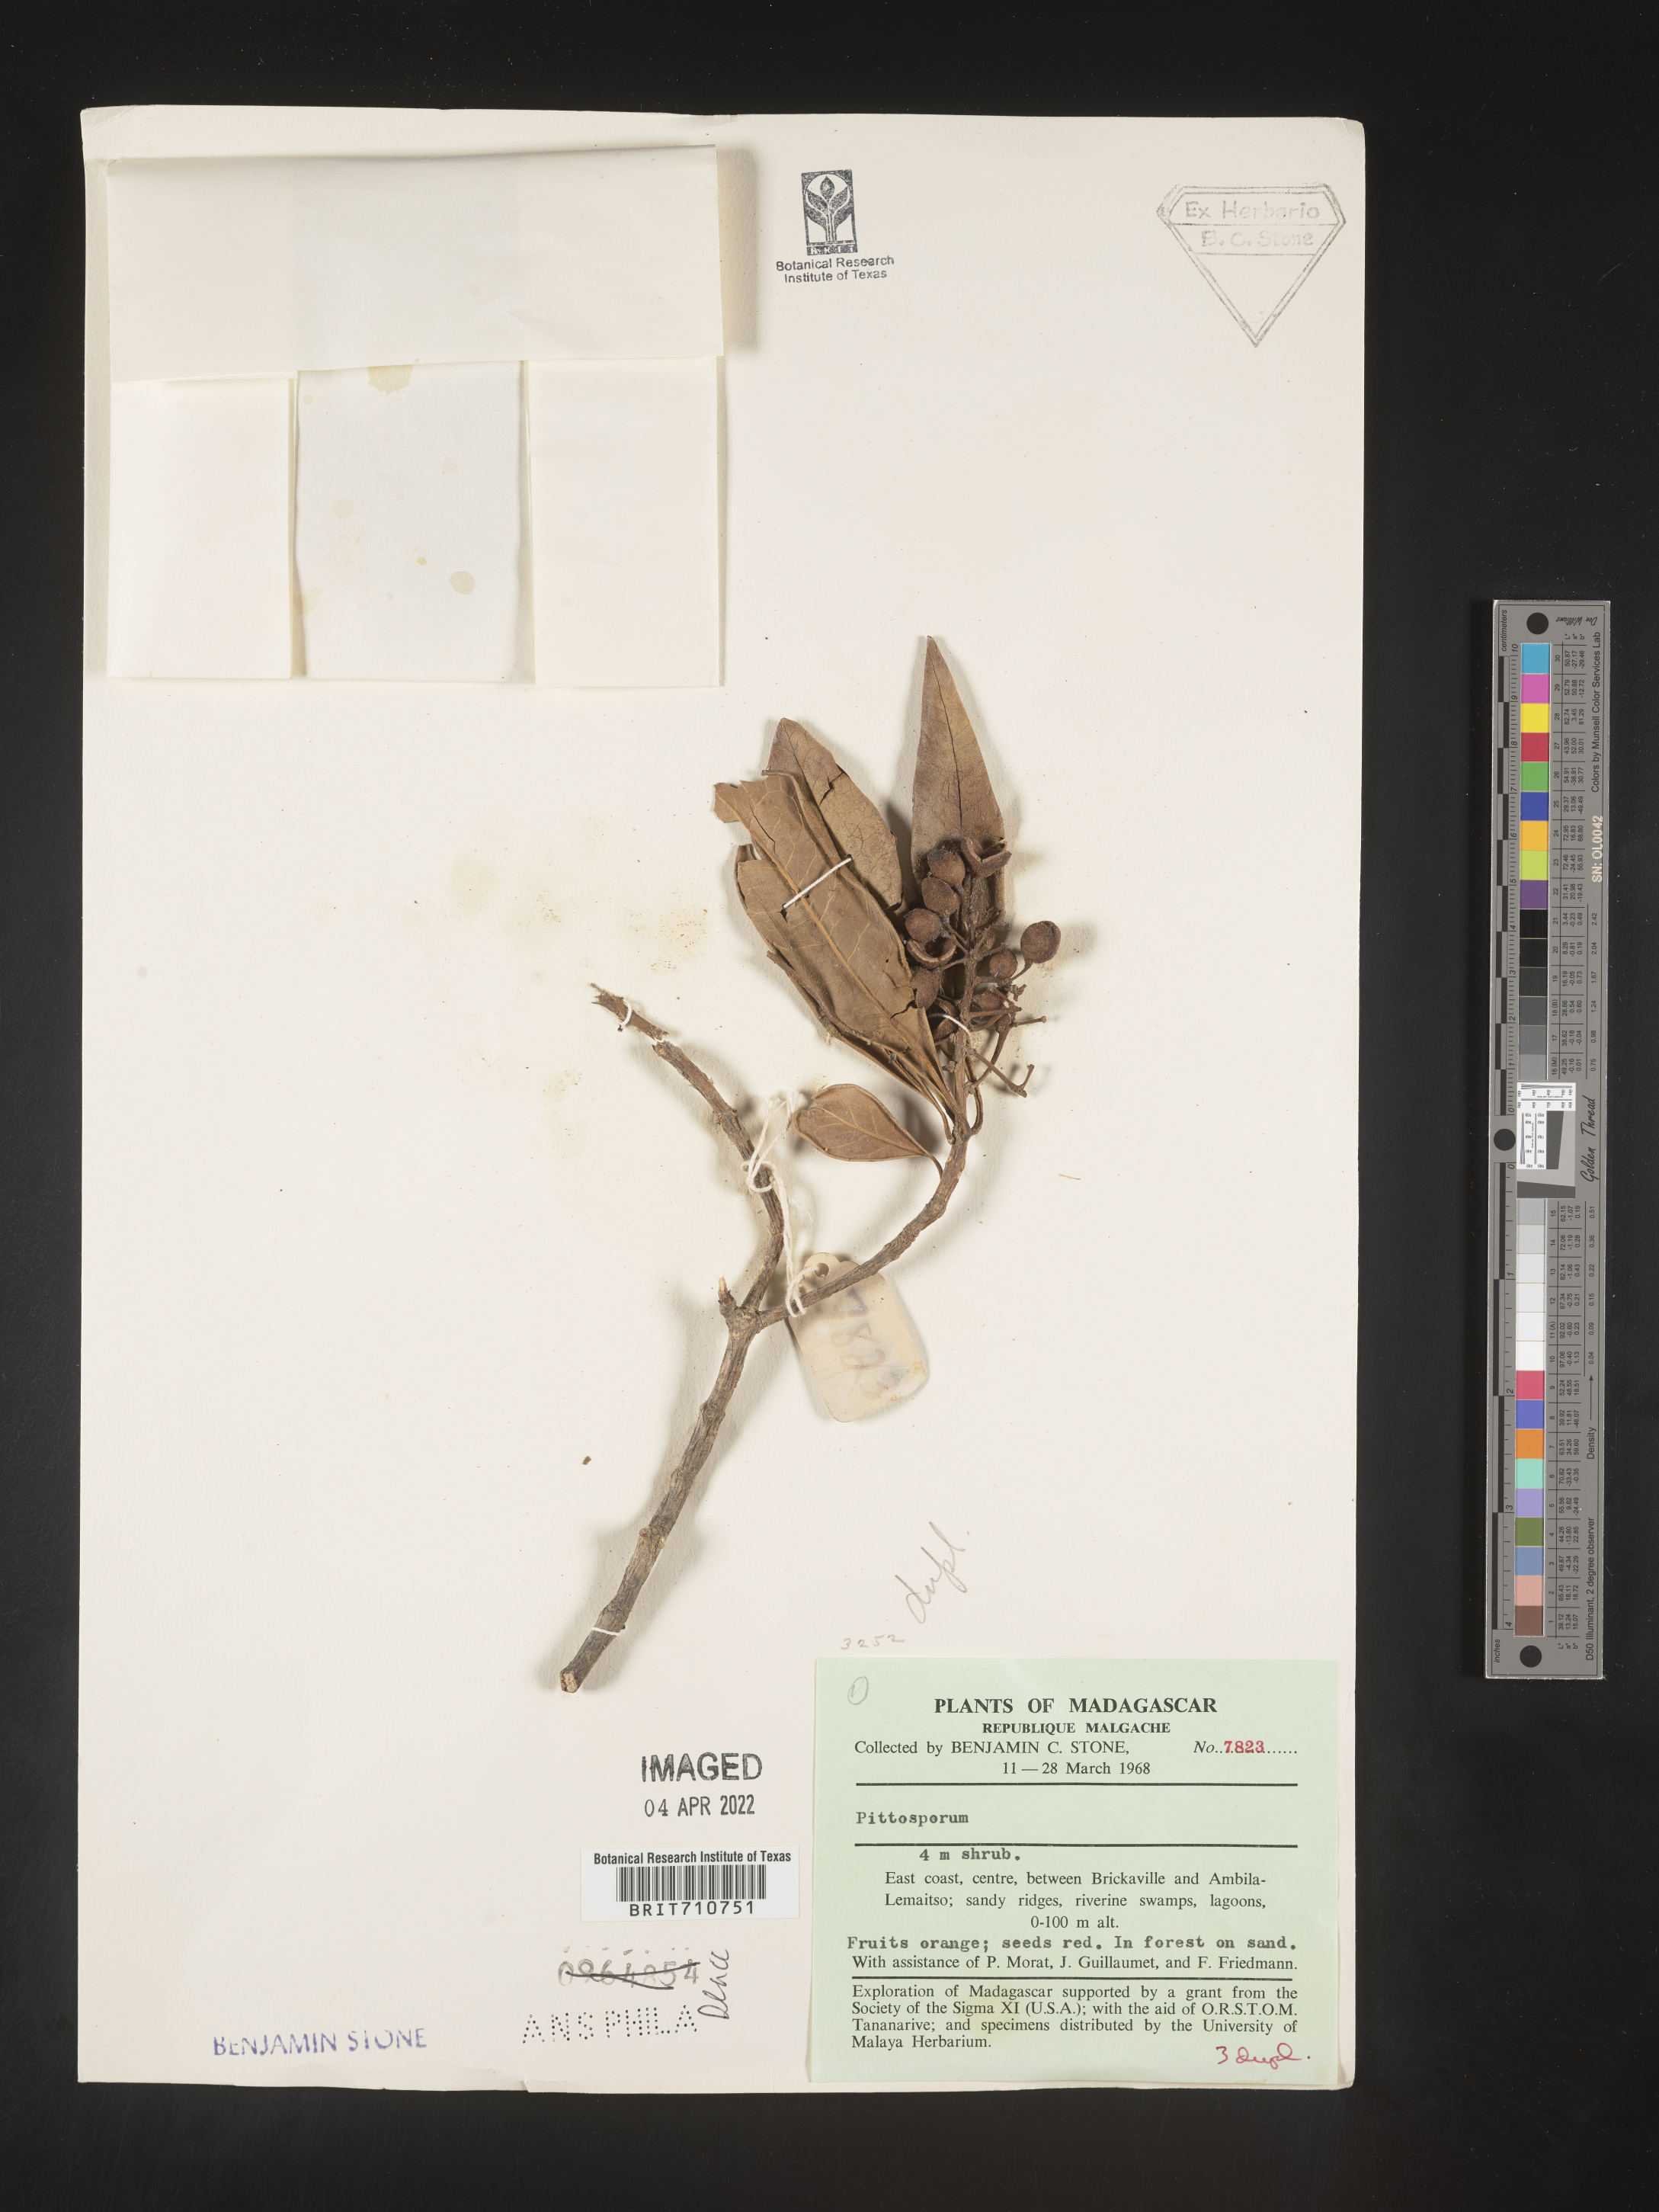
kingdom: Plantae
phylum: Tracheophyta
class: Magnoliopsida
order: Apiales
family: Pittosporaceae
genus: Pittosporum
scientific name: Pittosporum
